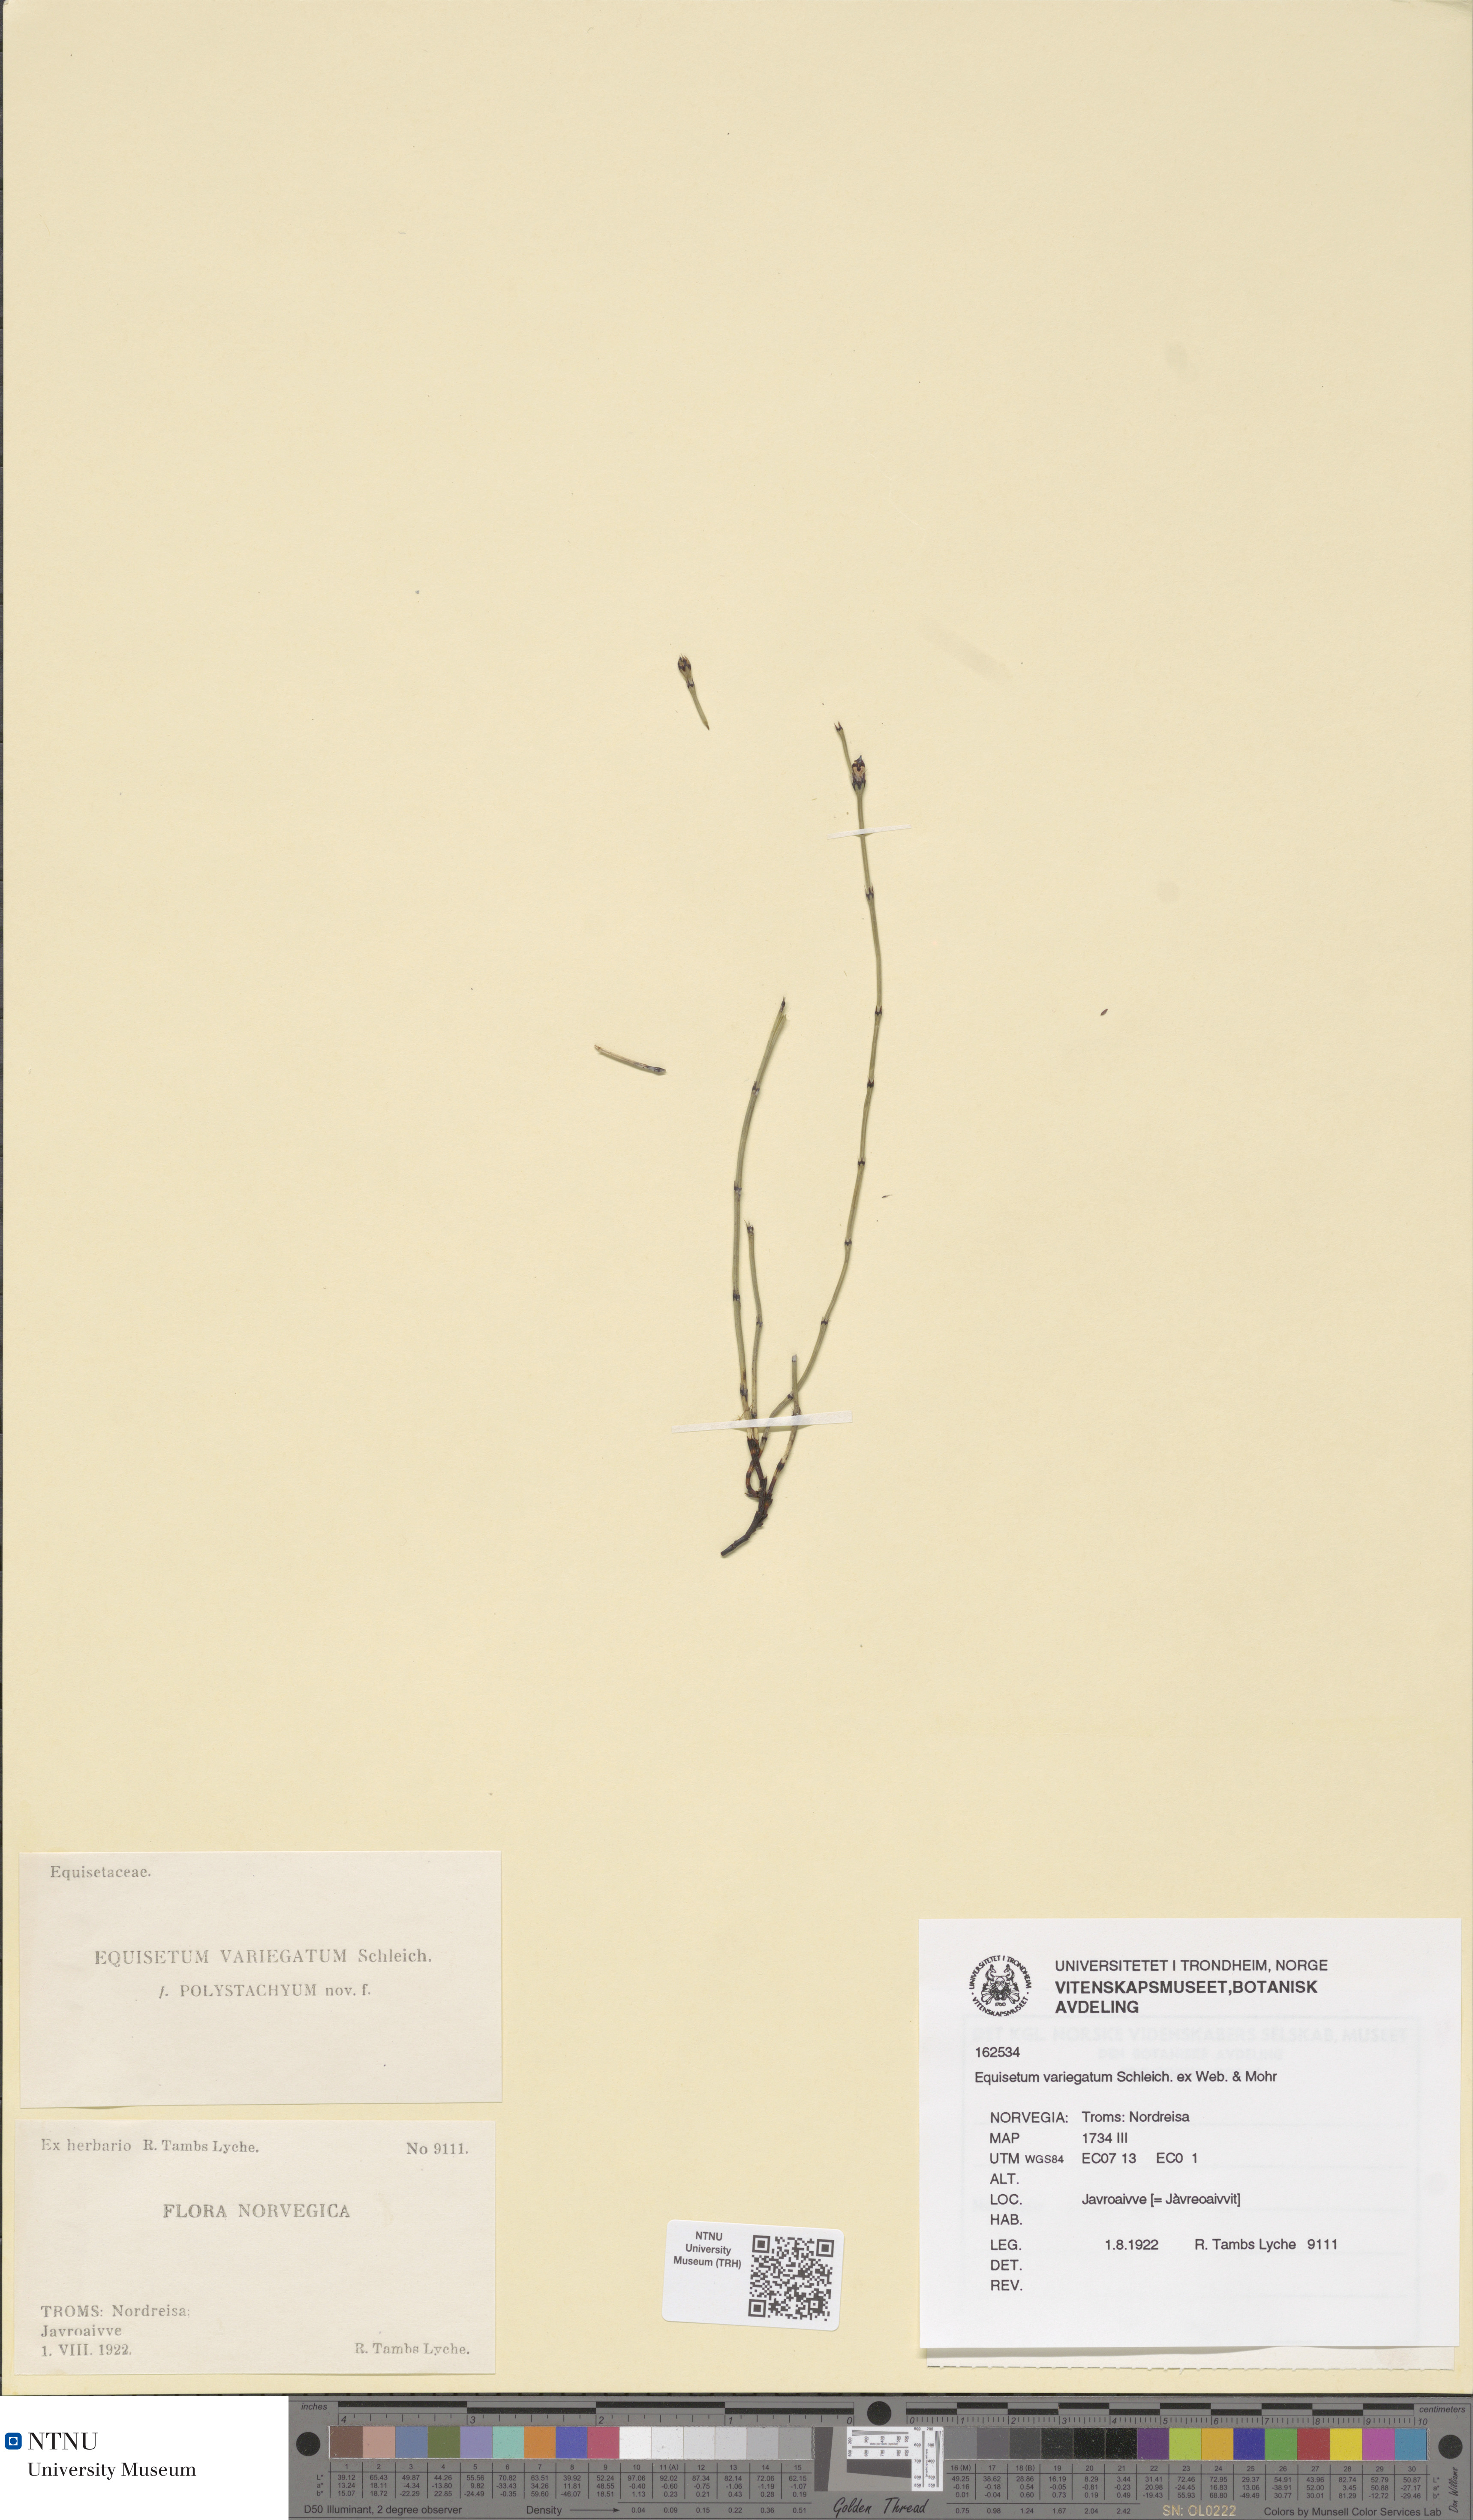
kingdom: Plantae
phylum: Tracheophyta
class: Polypodiopsida
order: Equisetales
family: Equisetaceae
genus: Equisetum
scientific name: Equisetum variegatum
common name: Variegated horsetail
